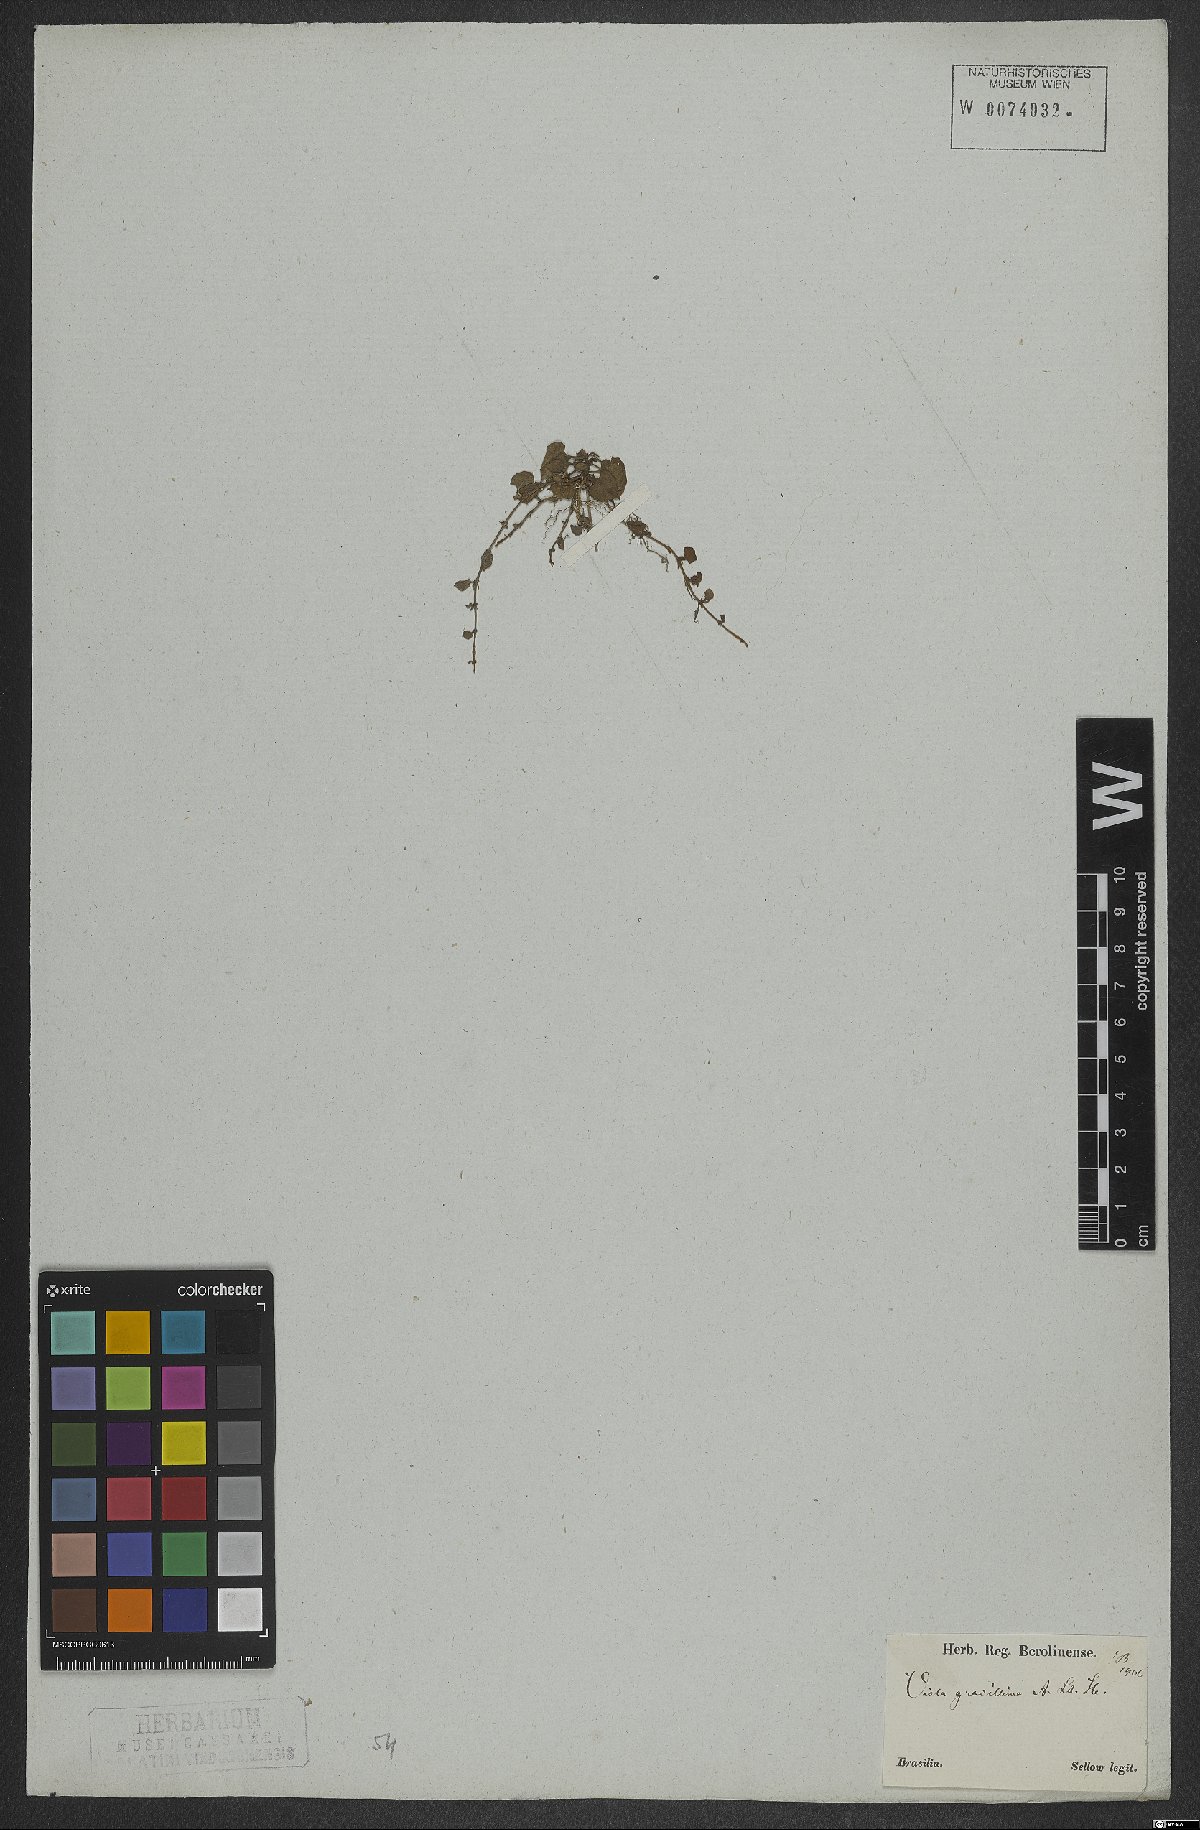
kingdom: Plantae
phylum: Tracheophyta
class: Magnoliopsida
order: Malpighiales
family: Violaceae
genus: Viola
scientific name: Viola gracillima
